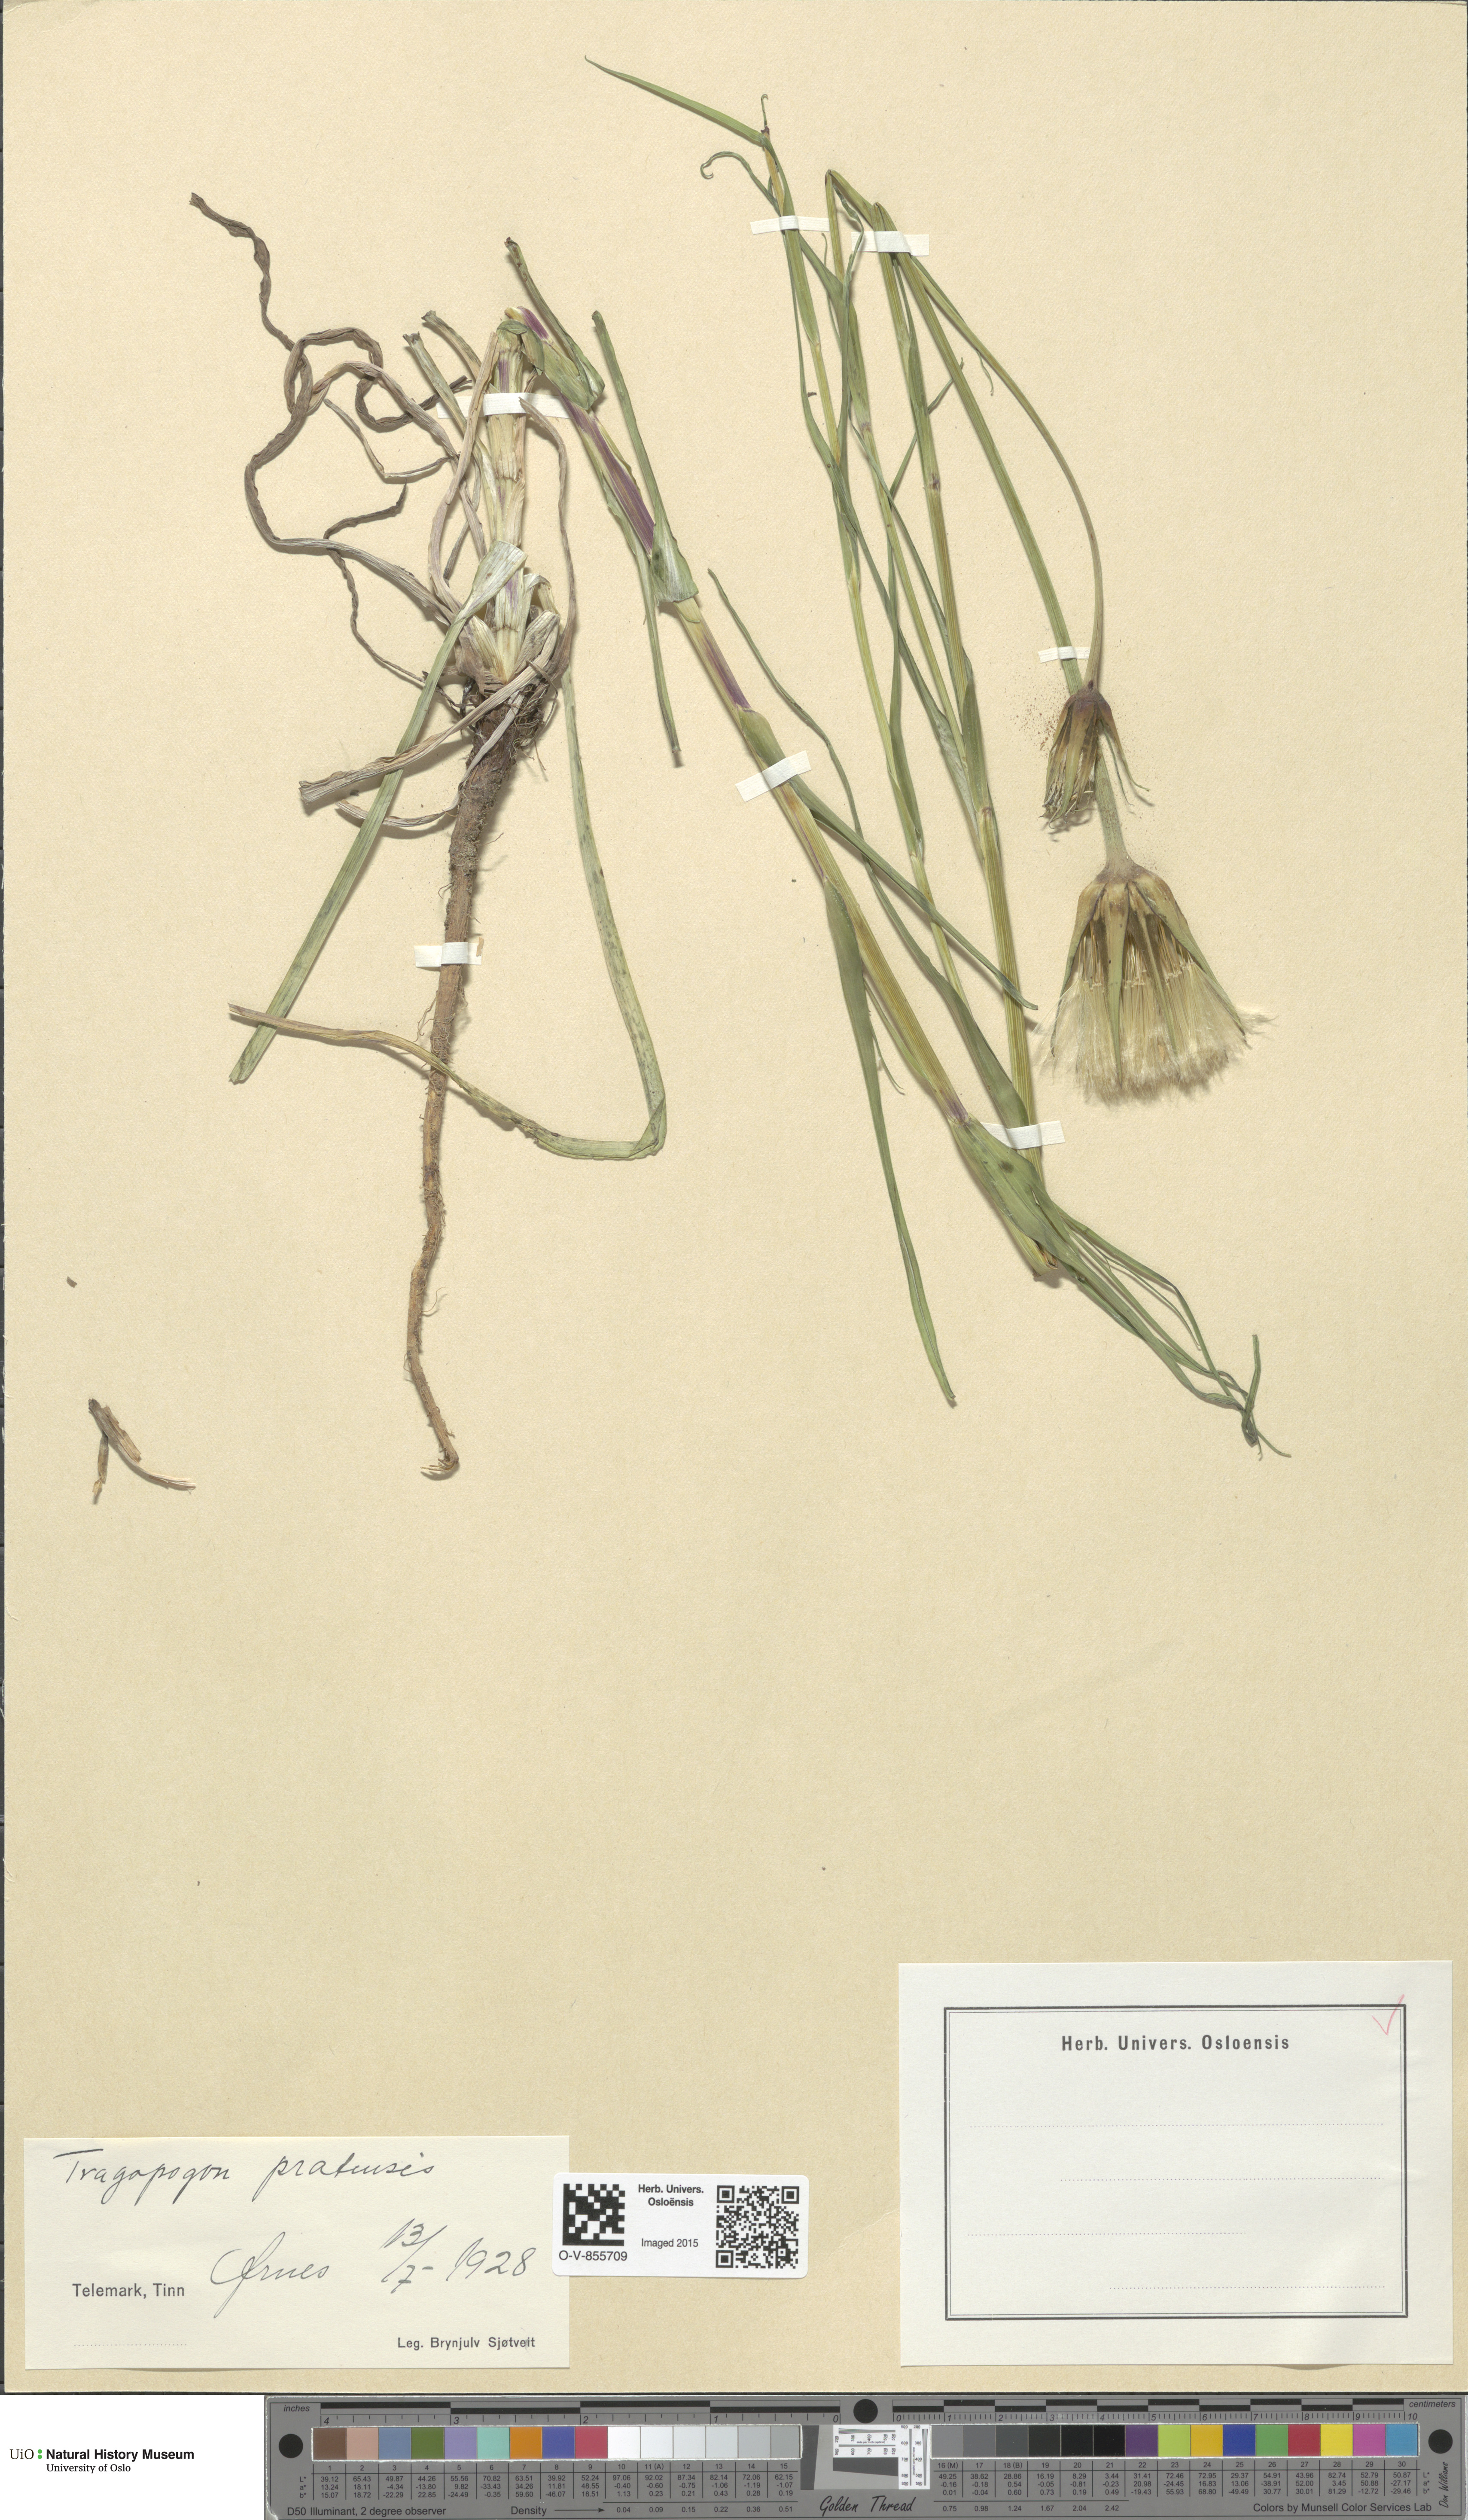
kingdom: Plantae
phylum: Tracheophyta
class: Magnoliopsida
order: Asterales
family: Asteraceae
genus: Tragopogon
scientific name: Tragopogon pratensis
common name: Goat's-beard
